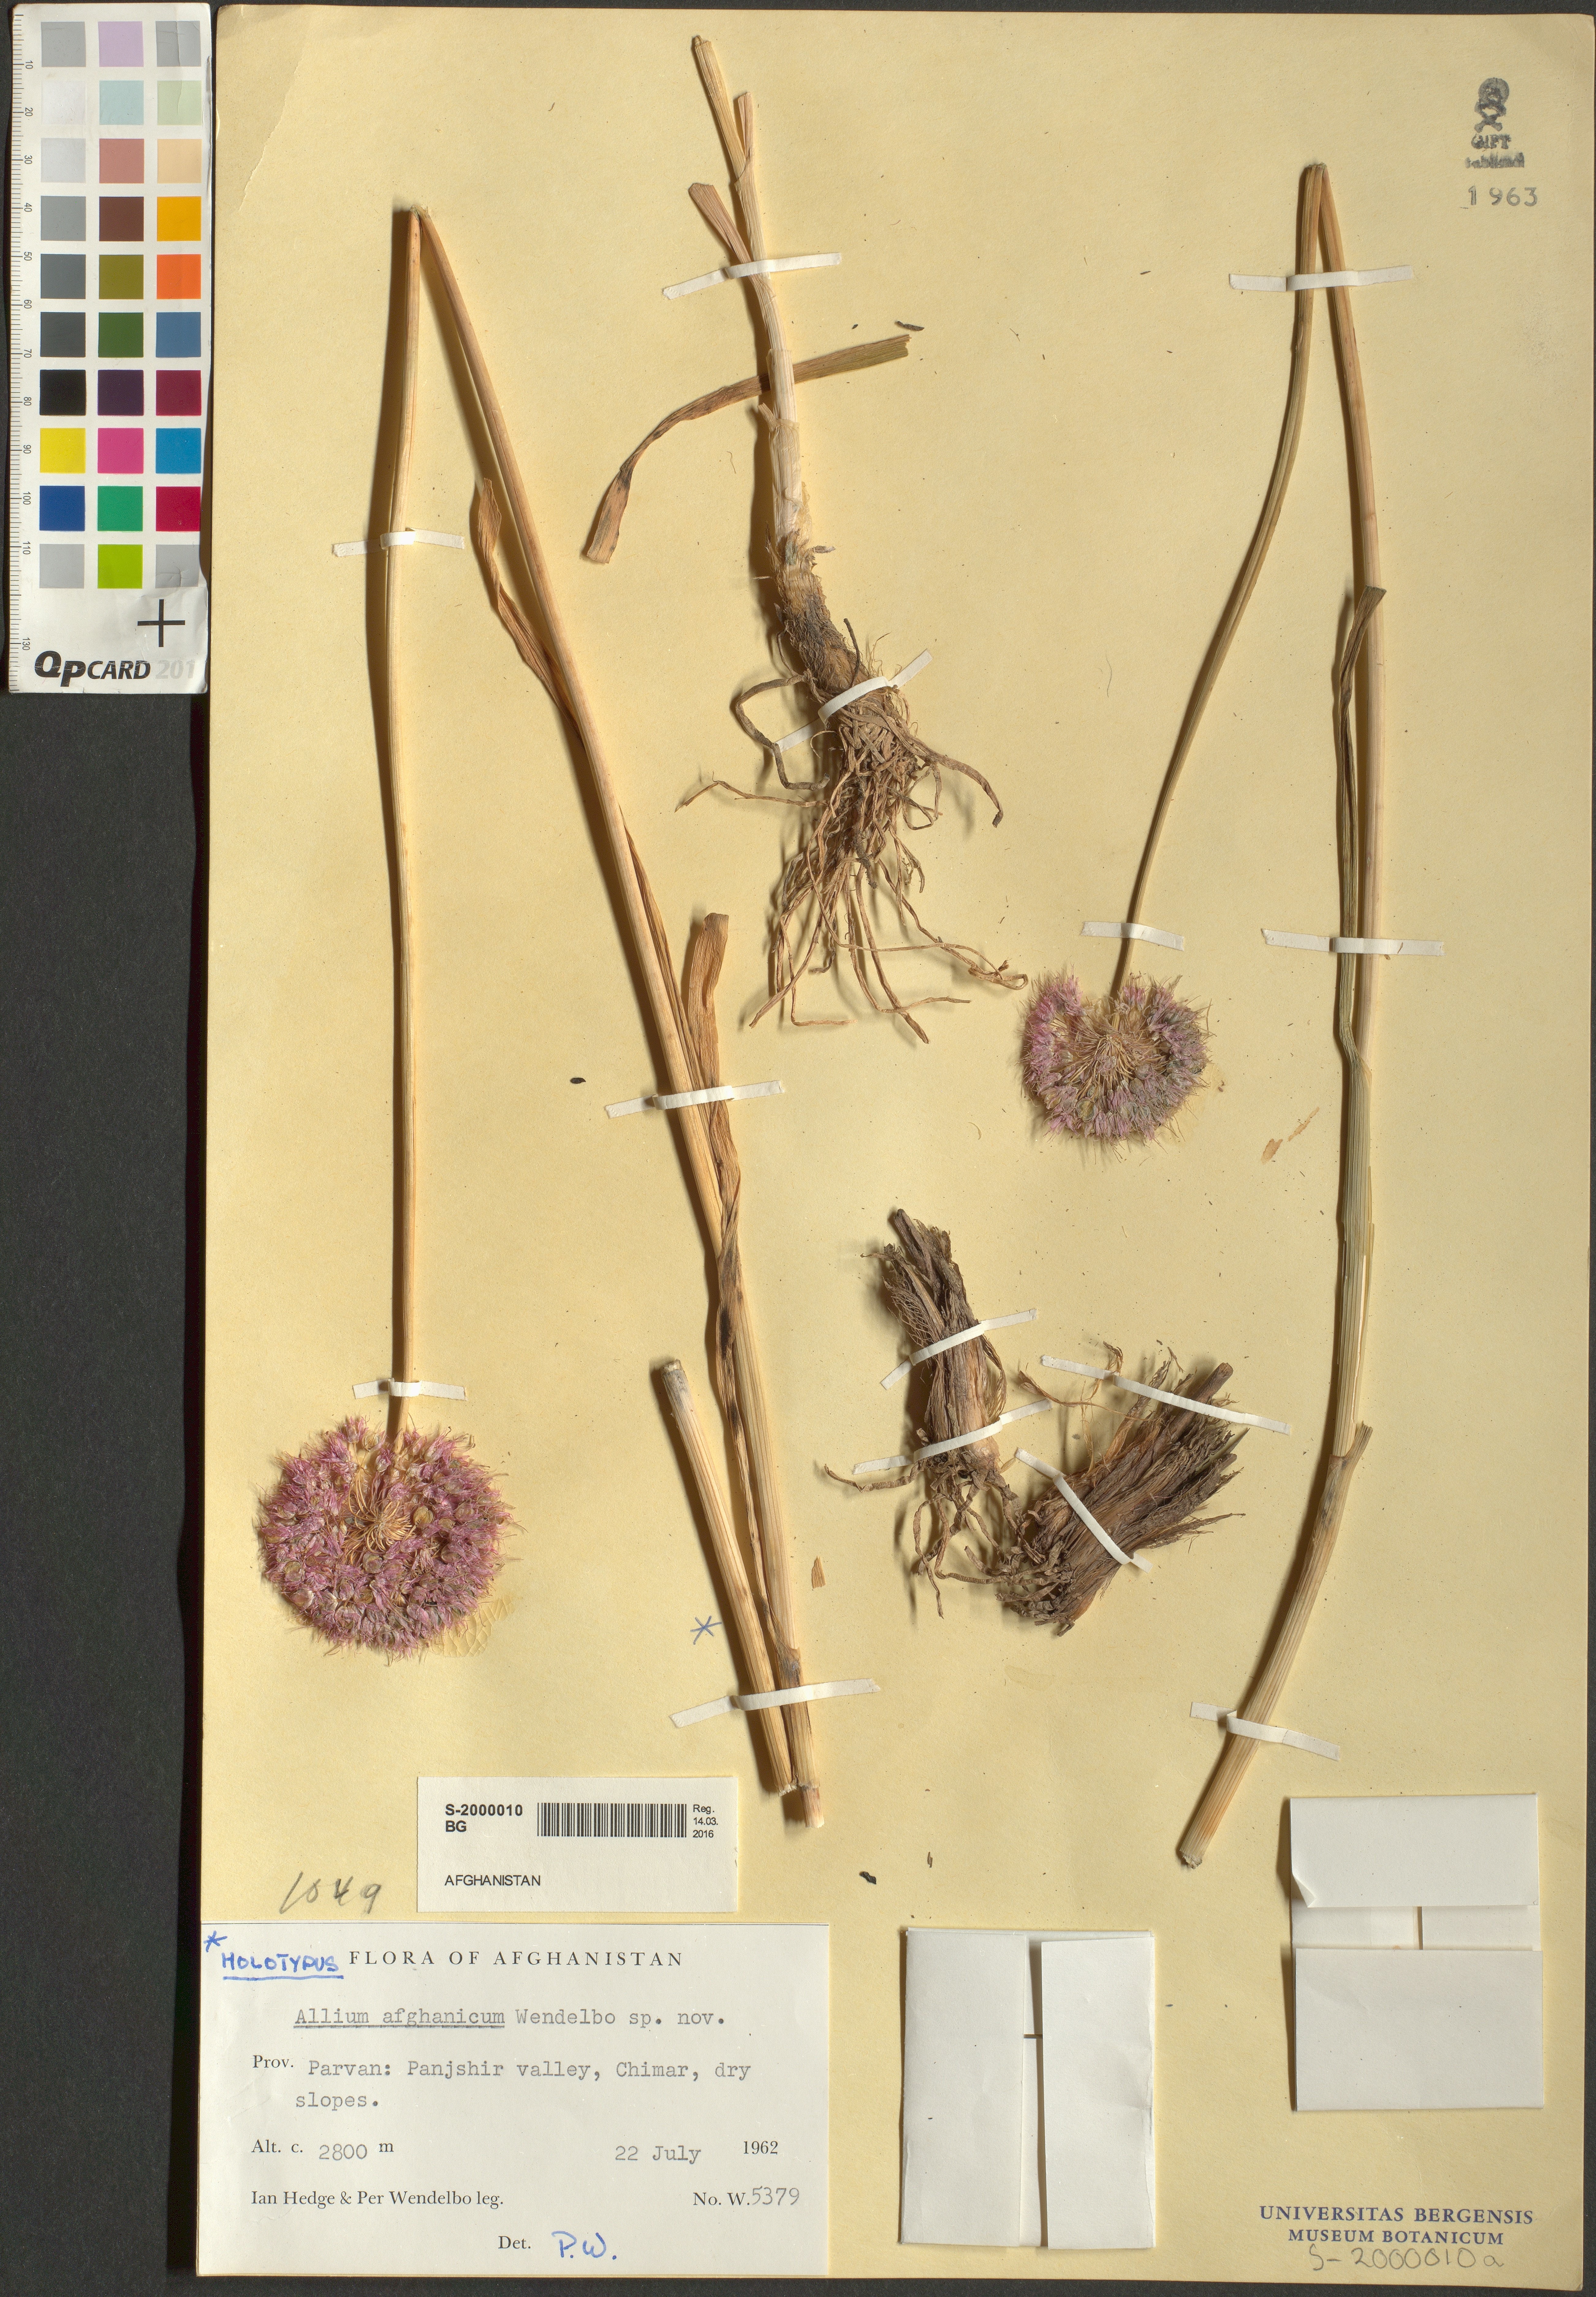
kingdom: Plantae
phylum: Tracheophyta
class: Liliopsida
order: Asparagales
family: Amaryllidaceae
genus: Allium
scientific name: Allium afghanicum
